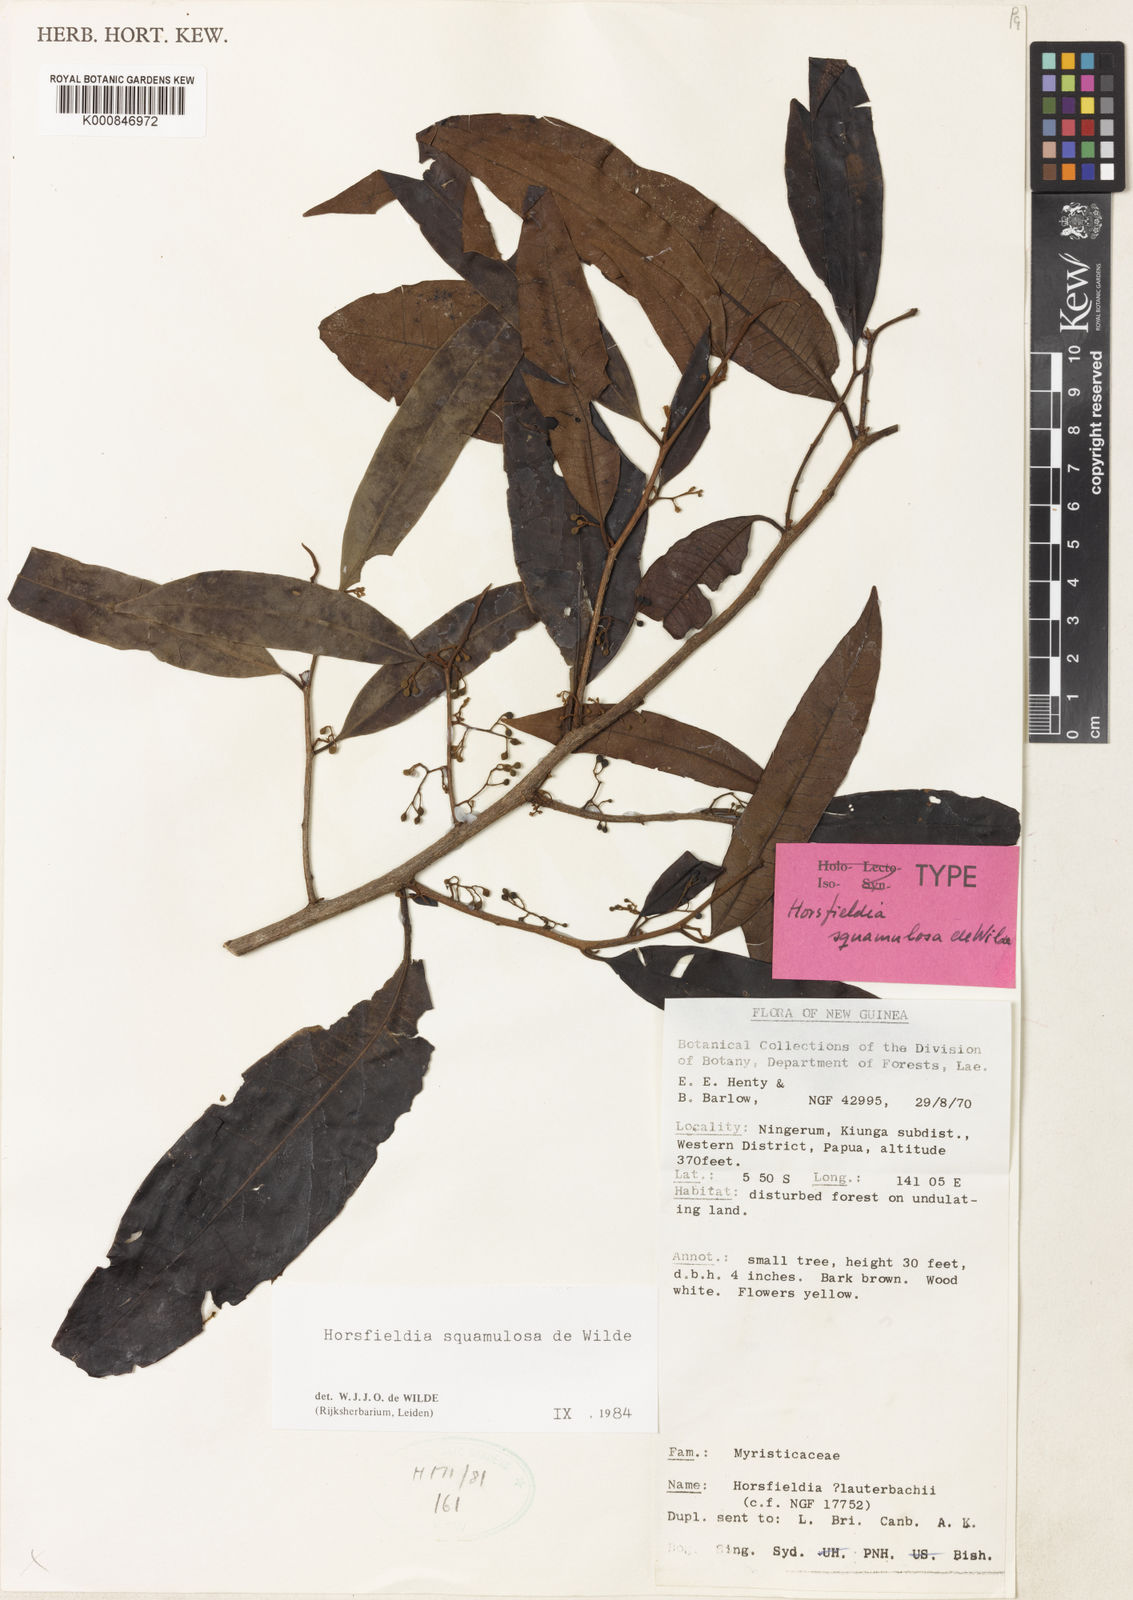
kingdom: Plantae
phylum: Tracheophyta
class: Magnoliopsida
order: Magnoliales
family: Myristicaceae
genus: Horsfieldia
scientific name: Horsfieldia squamulosa
